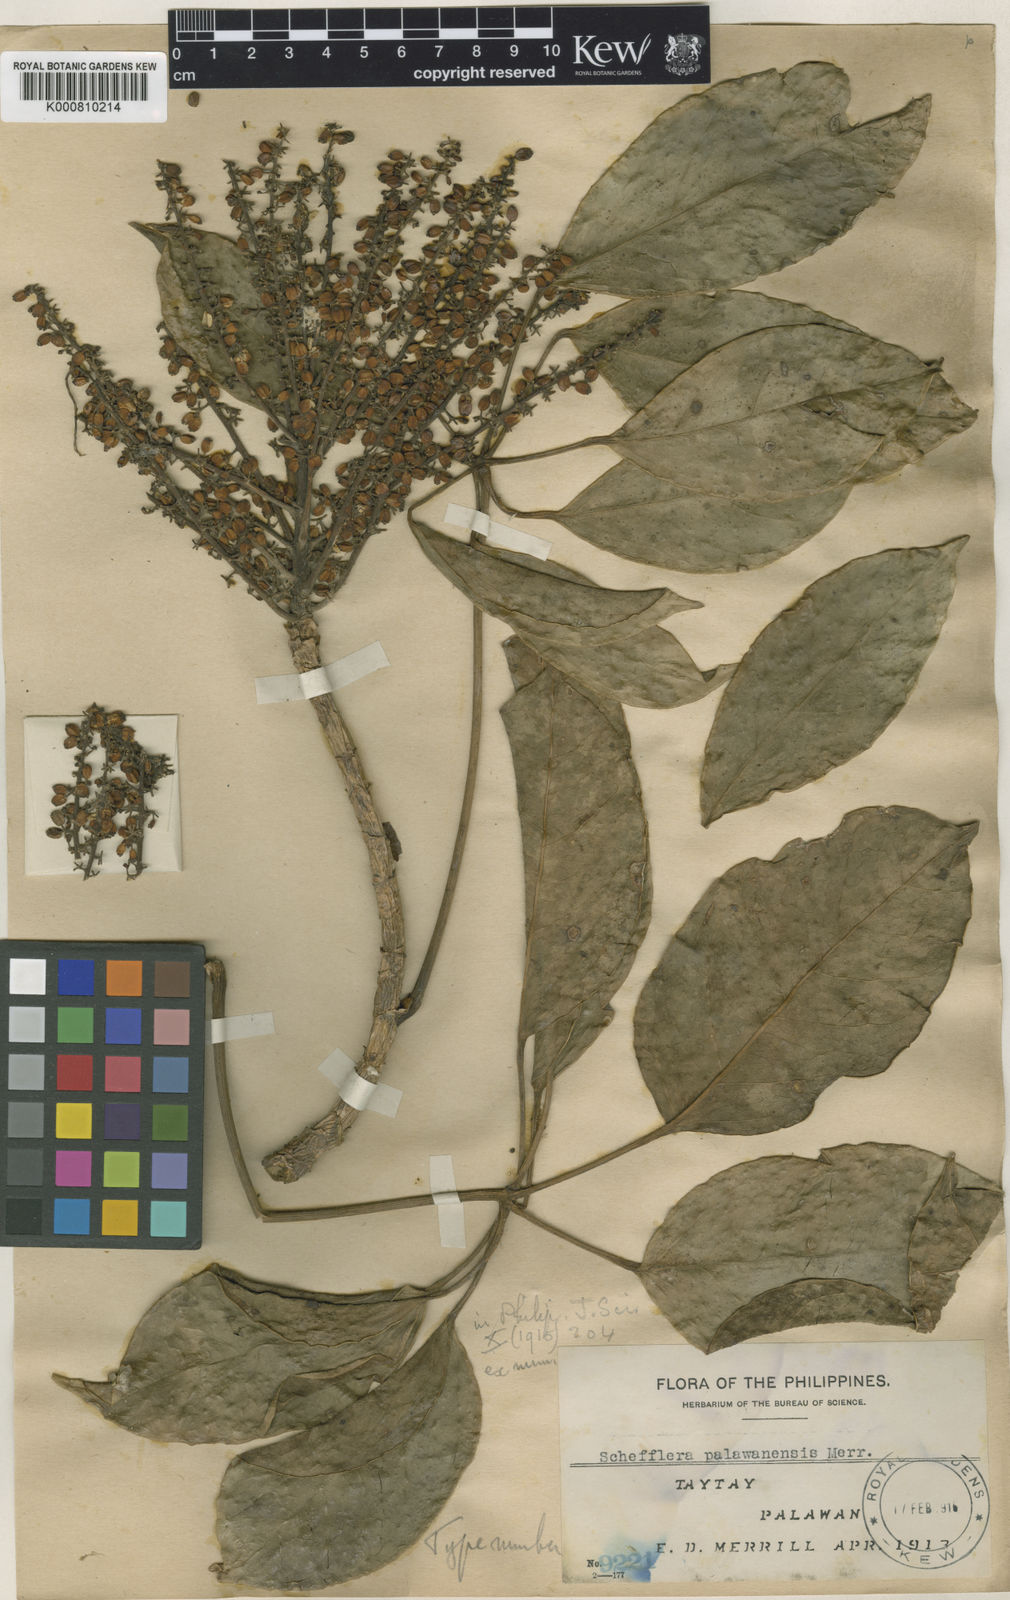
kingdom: Plantae
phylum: Tracheophyta
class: Magnoliopsida
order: Apiales
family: Araliaceae
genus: Heptapleurum
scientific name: Heptapleurum palawanense
